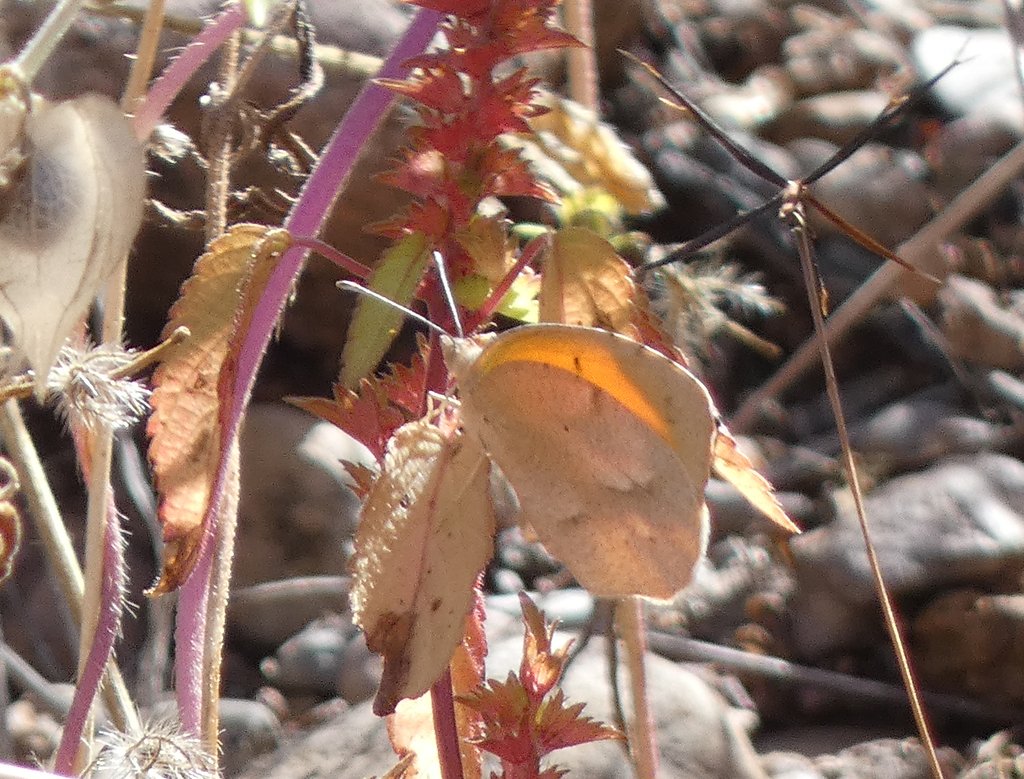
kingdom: Animalia
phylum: Arthropoda
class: Insecta
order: Lepidoptera
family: Pieridae
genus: Abaeis
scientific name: Abaeis nicippe
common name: Sleepy Orange
